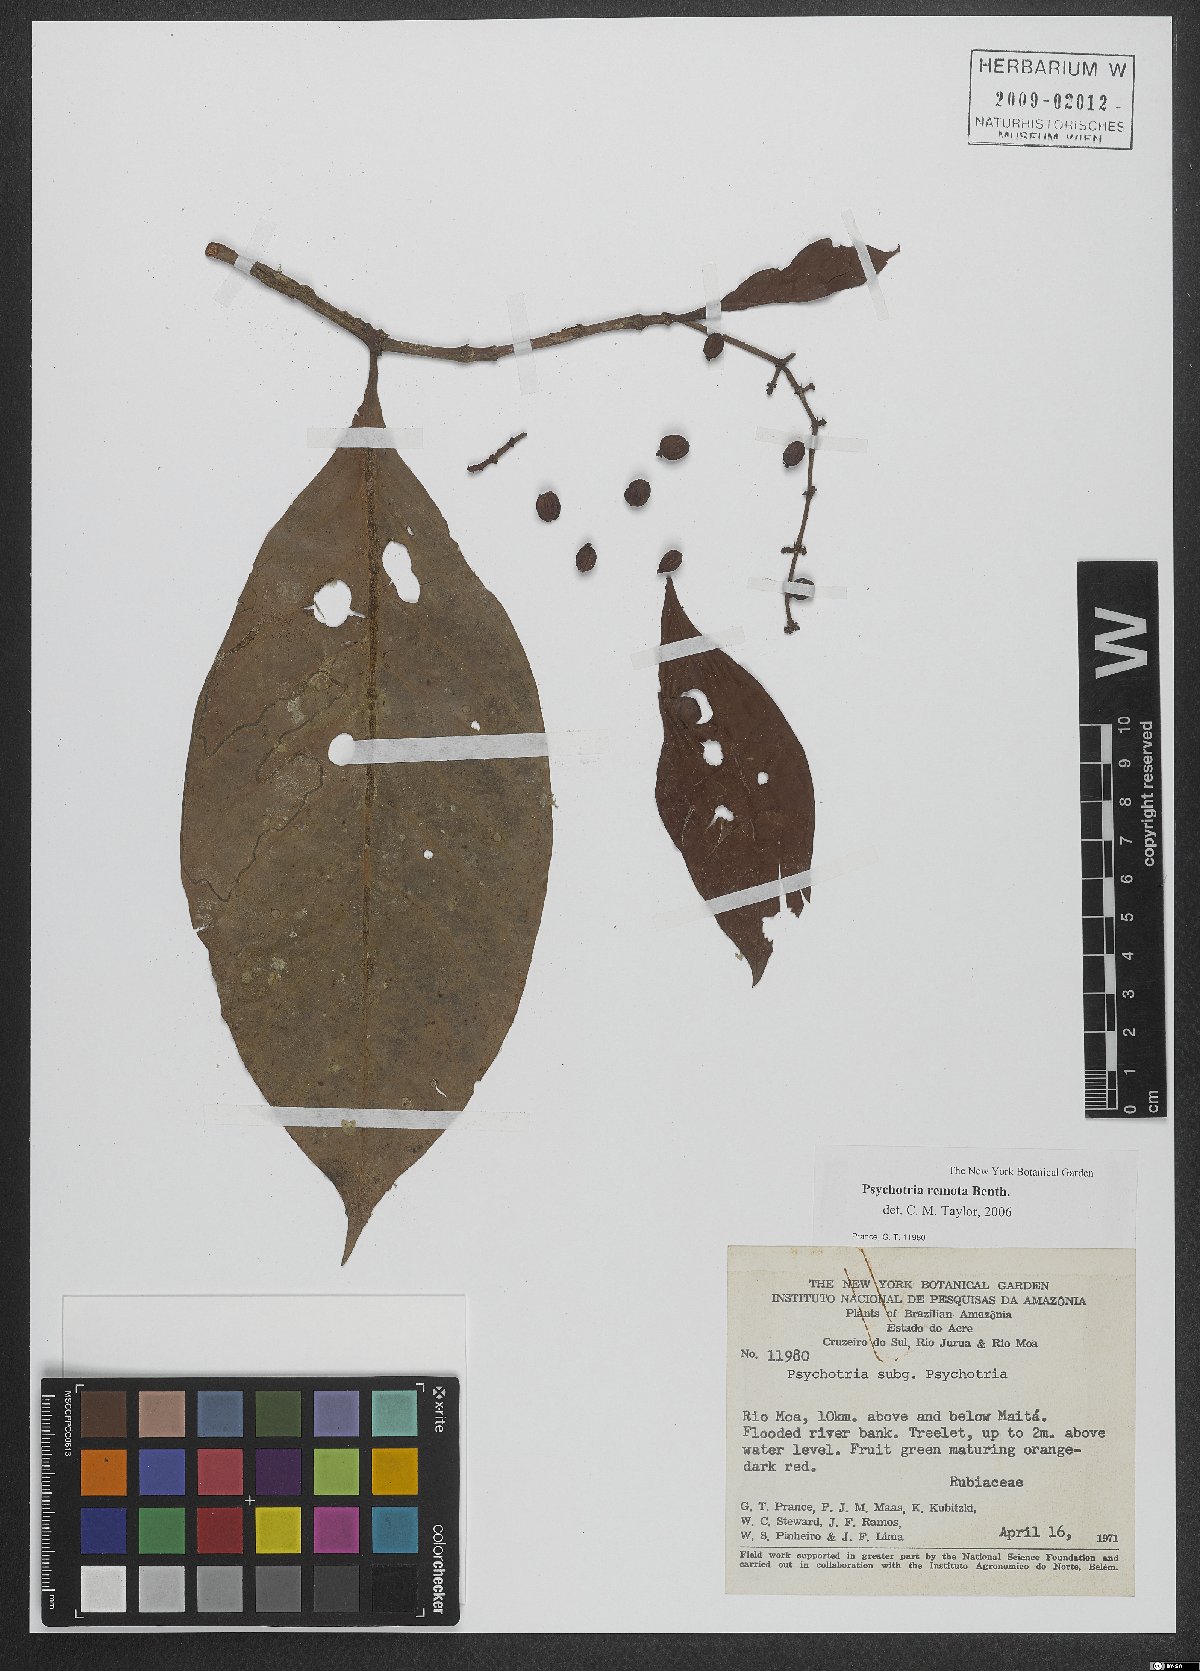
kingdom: Plantae
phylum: Tracheophyta
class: Magnoliopsida
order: Gentianales
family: Rubiaceae
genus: Psychotria
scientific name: Psychotria remota
